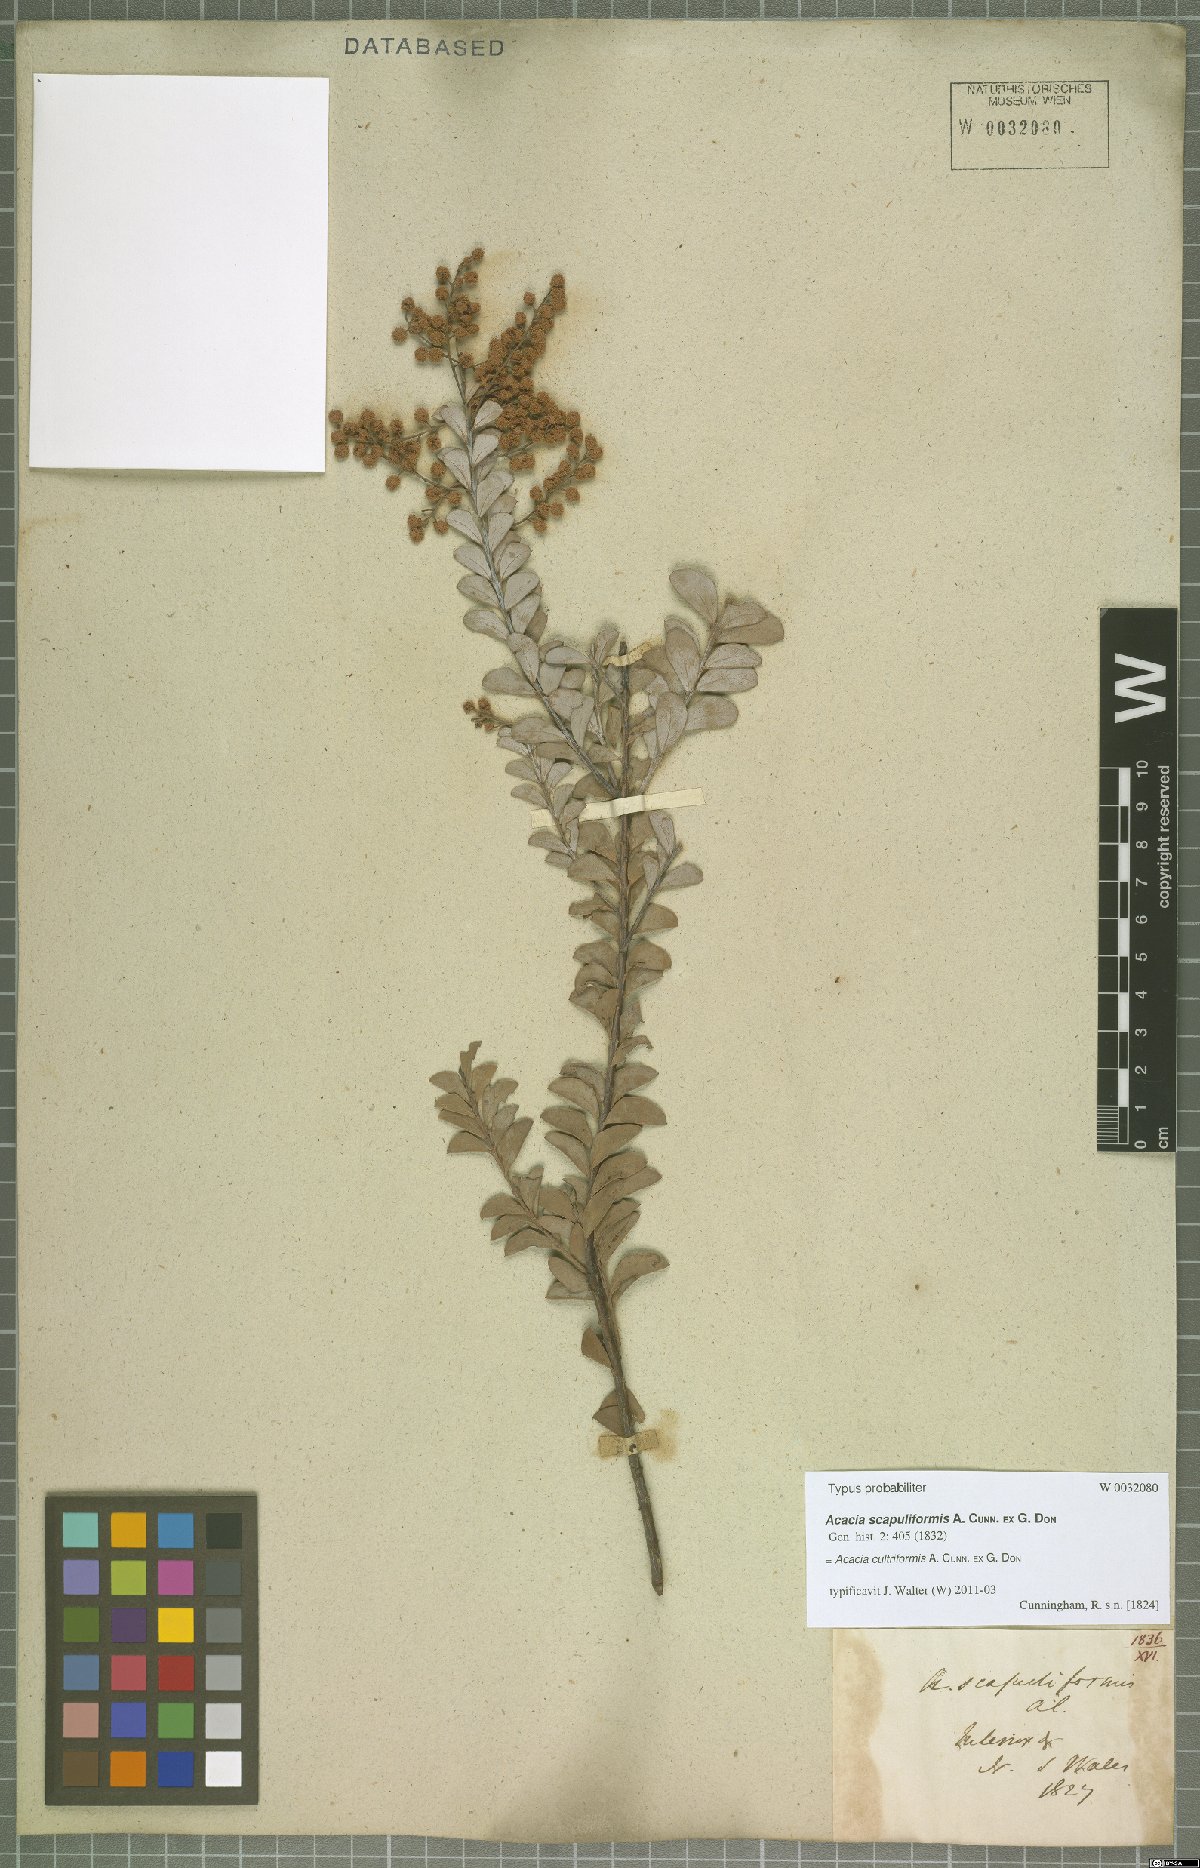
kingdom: Plantae
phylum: Tracheophyta
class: Magnoliopsida
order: Fabales
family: Fabaceae
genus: Acacia
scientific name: Acacia cultriformis
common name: Knife acacia
